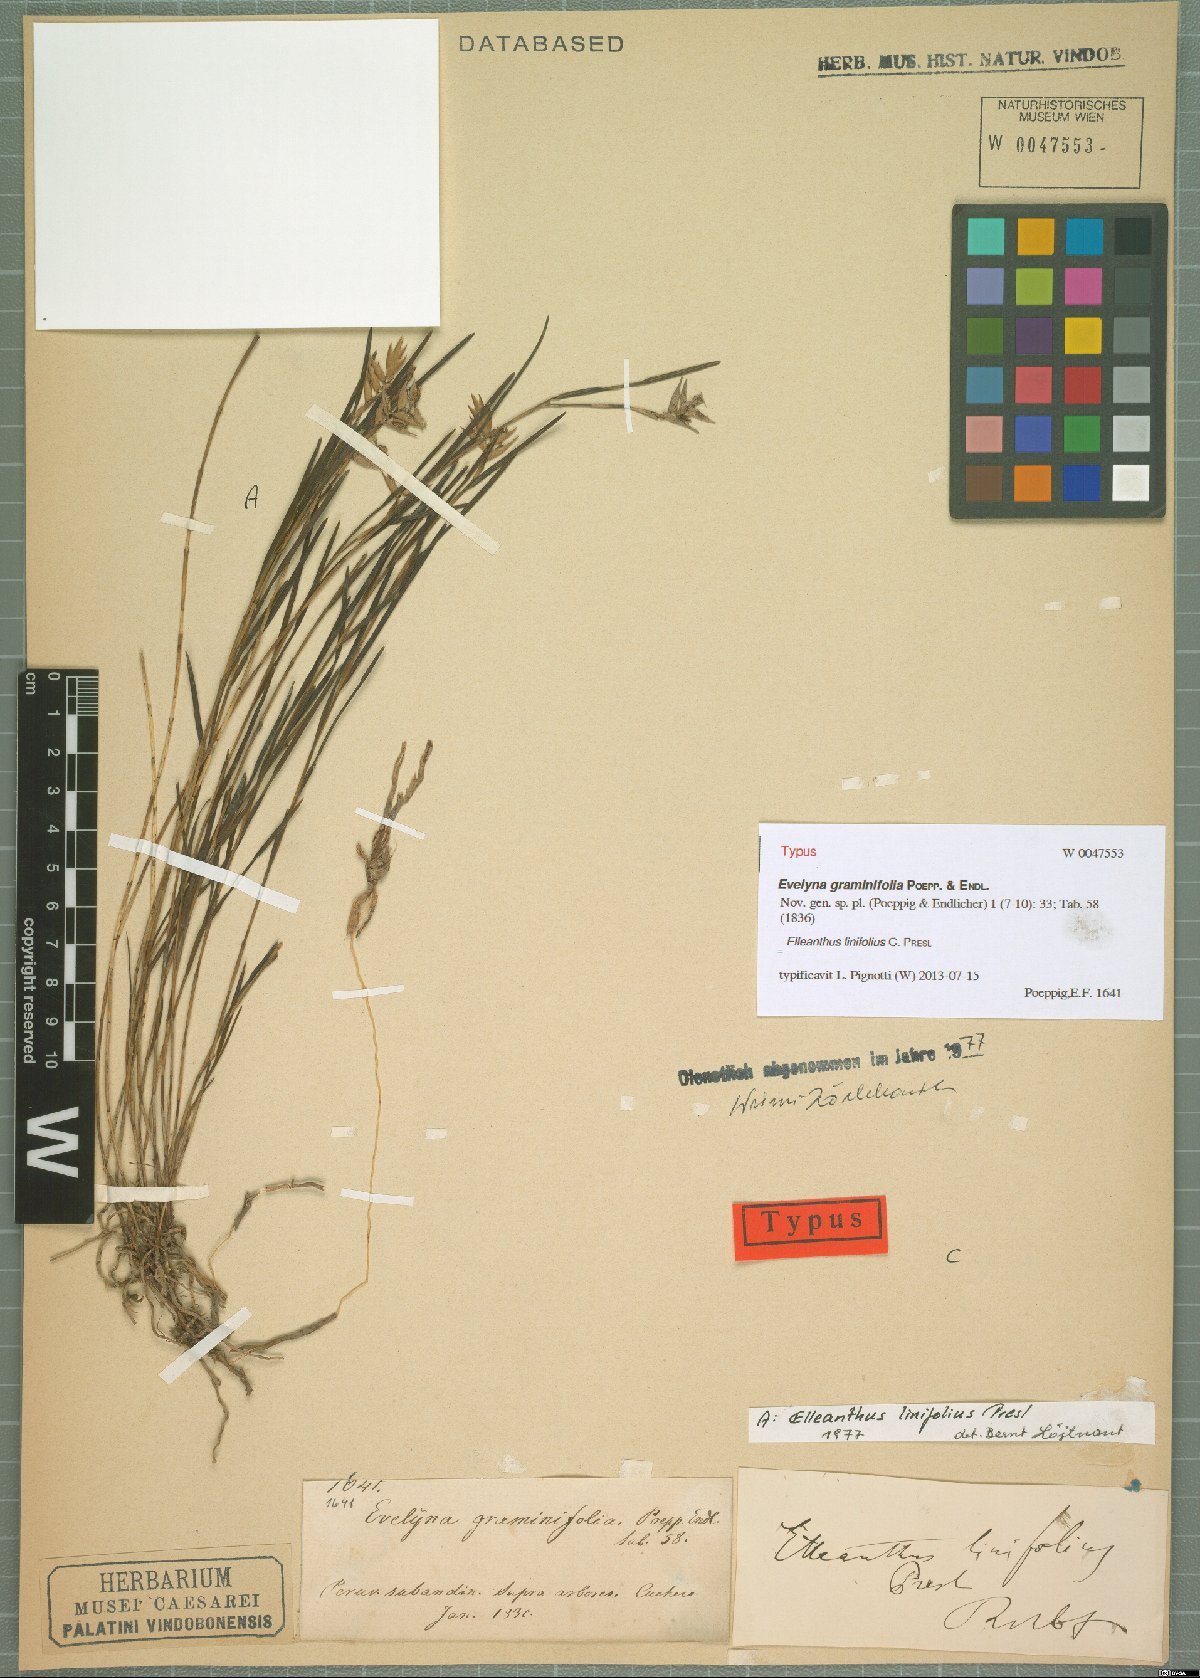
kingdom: Plantae
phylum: Tracheophyta
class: Liliopsida
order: Asparagales
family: Orchidaceae
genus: Elleanthus
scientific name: Elleanthus linifolius
